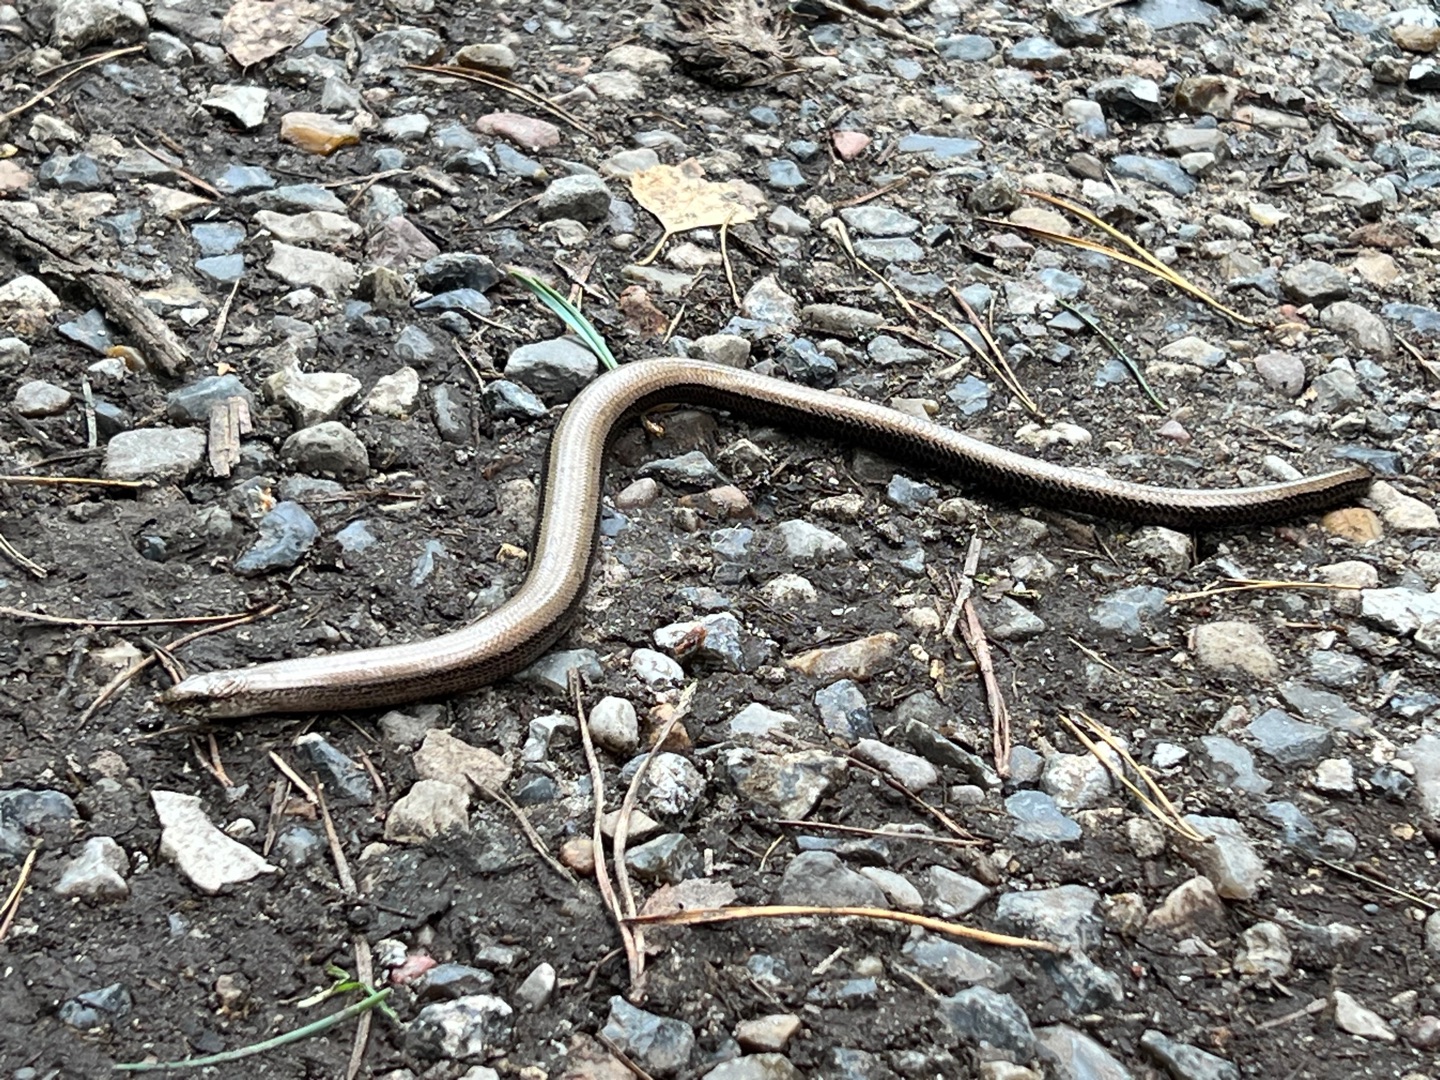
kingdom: Animalia
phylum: Chordata
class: Squamata
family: Anguidae
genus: Anguis
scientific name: Anguis fragilis
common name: Stålorm
